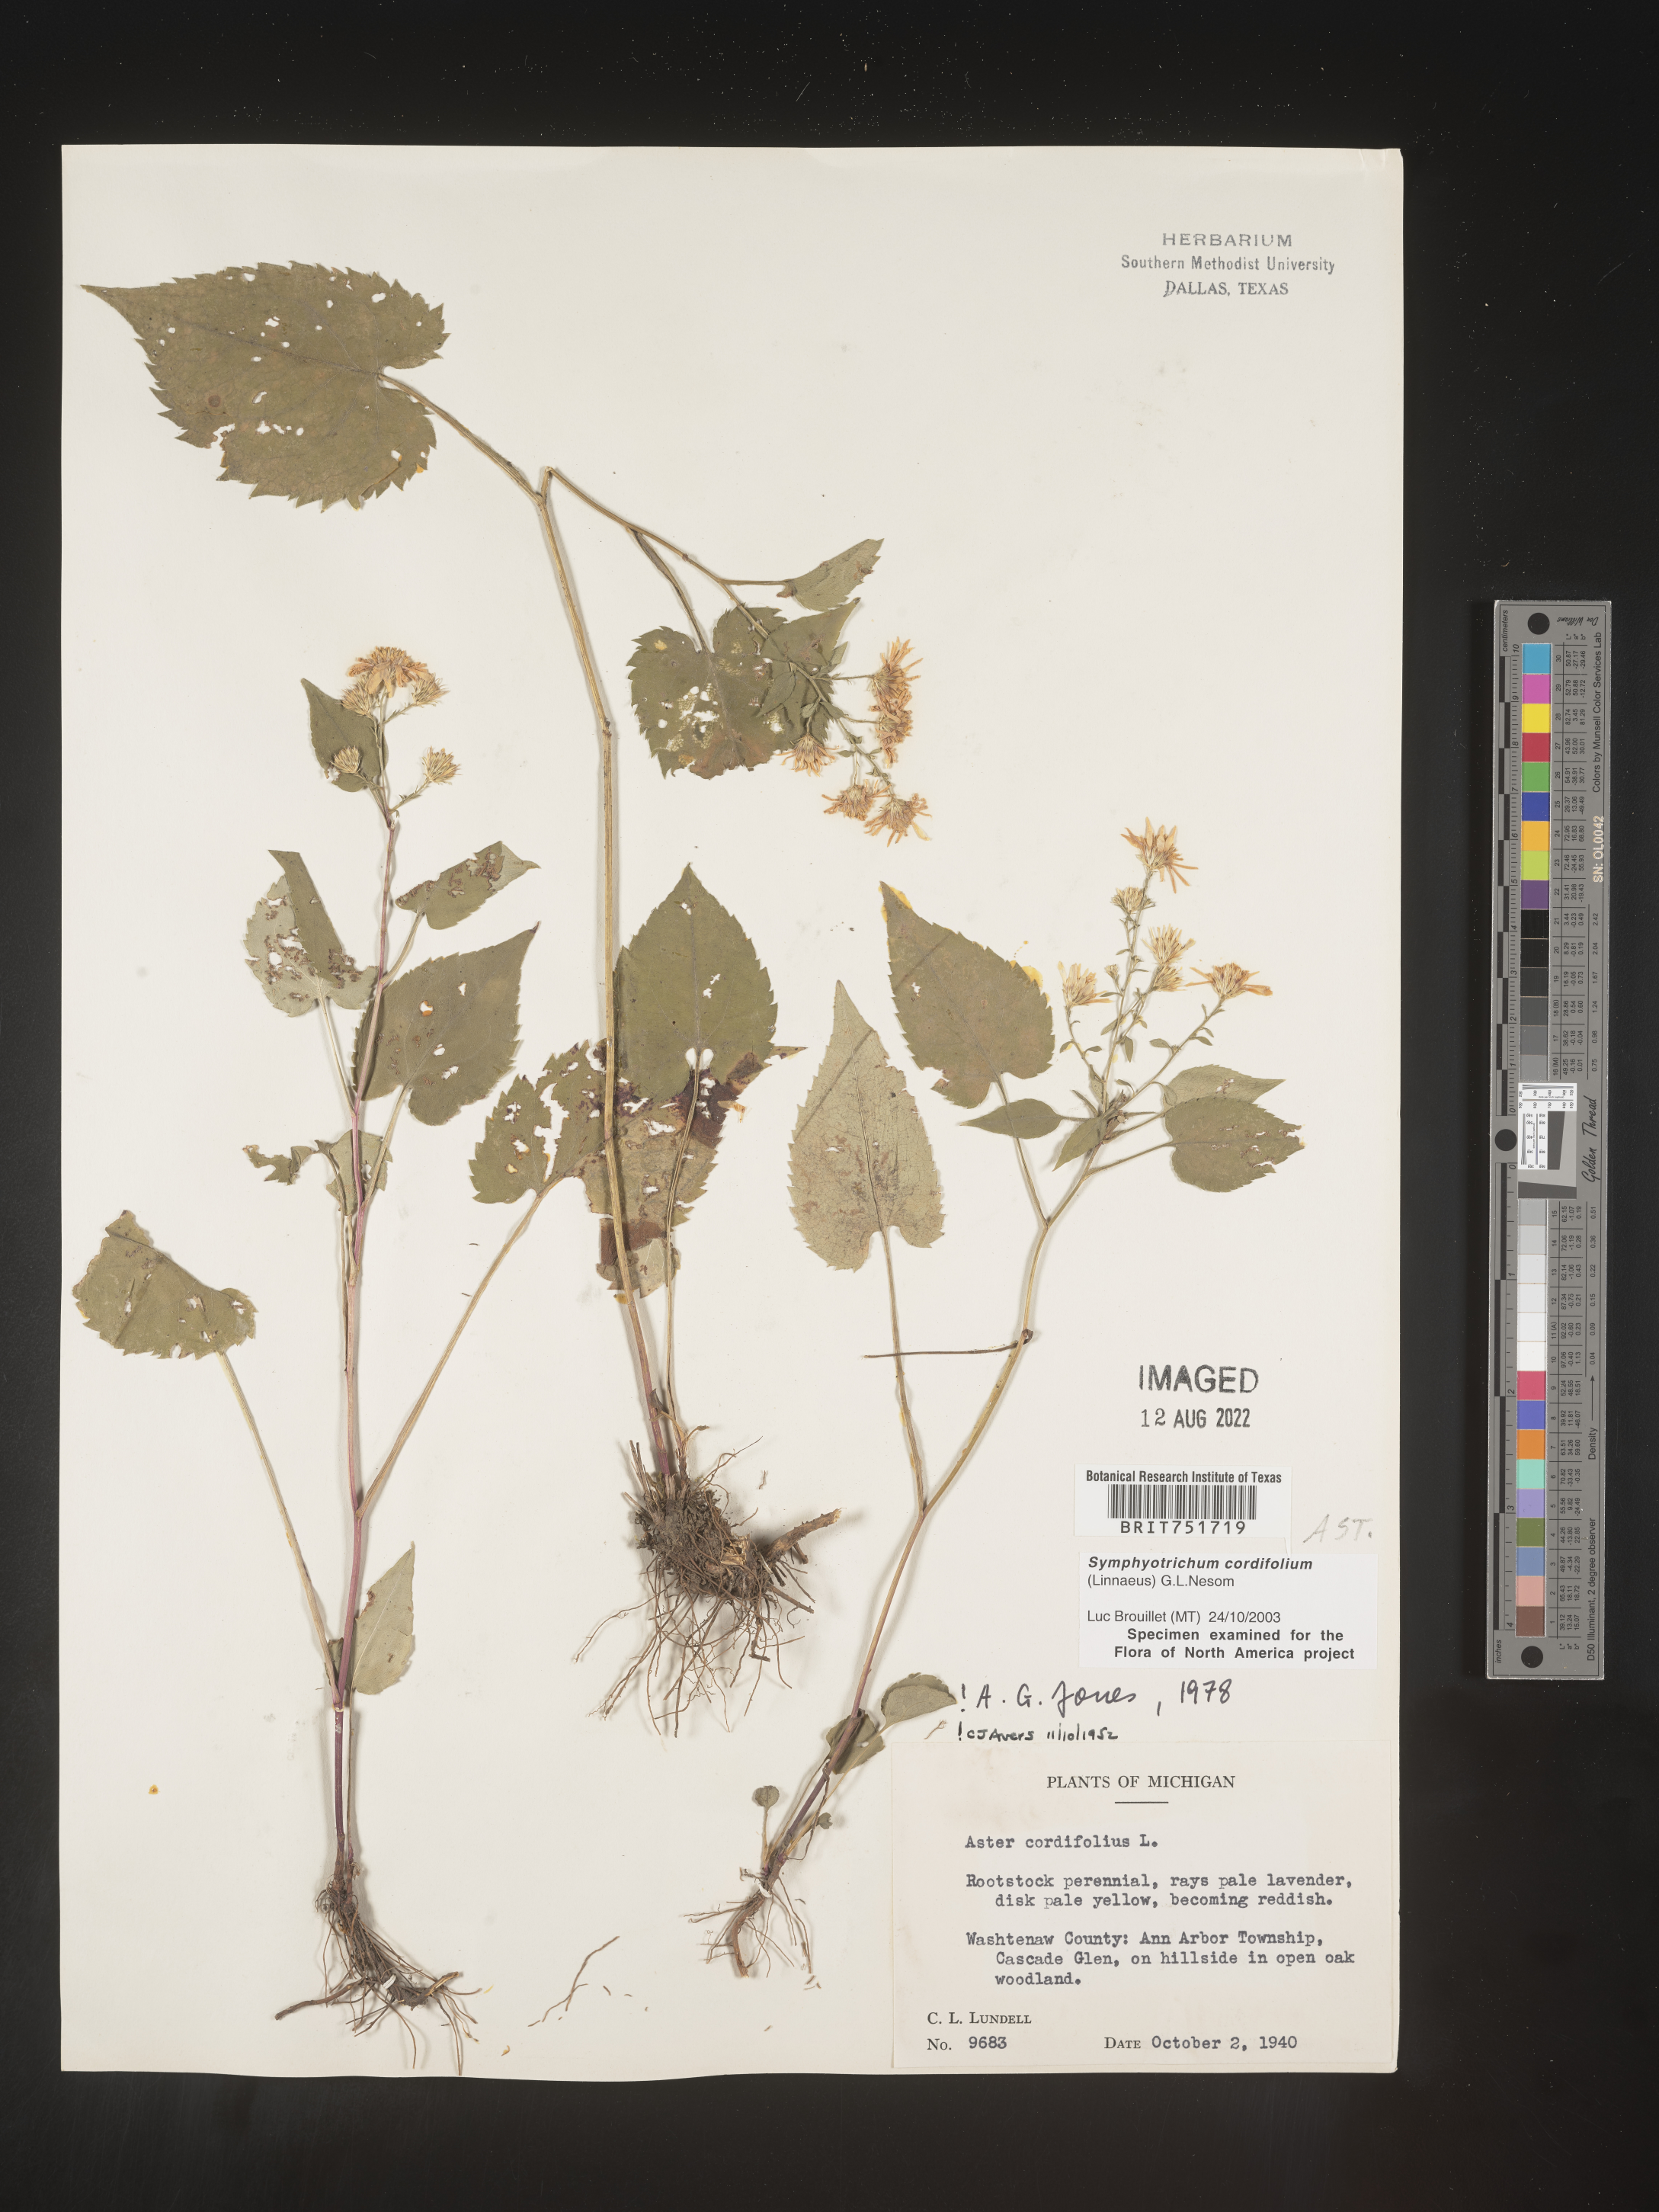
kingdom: Plantae
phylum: Tracheophyta
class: Magnoliopsida
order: Asterales
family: Asteraceae
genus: Symphyotrichum
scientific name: Symphyotrichum cordifolium
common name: Beeweed
